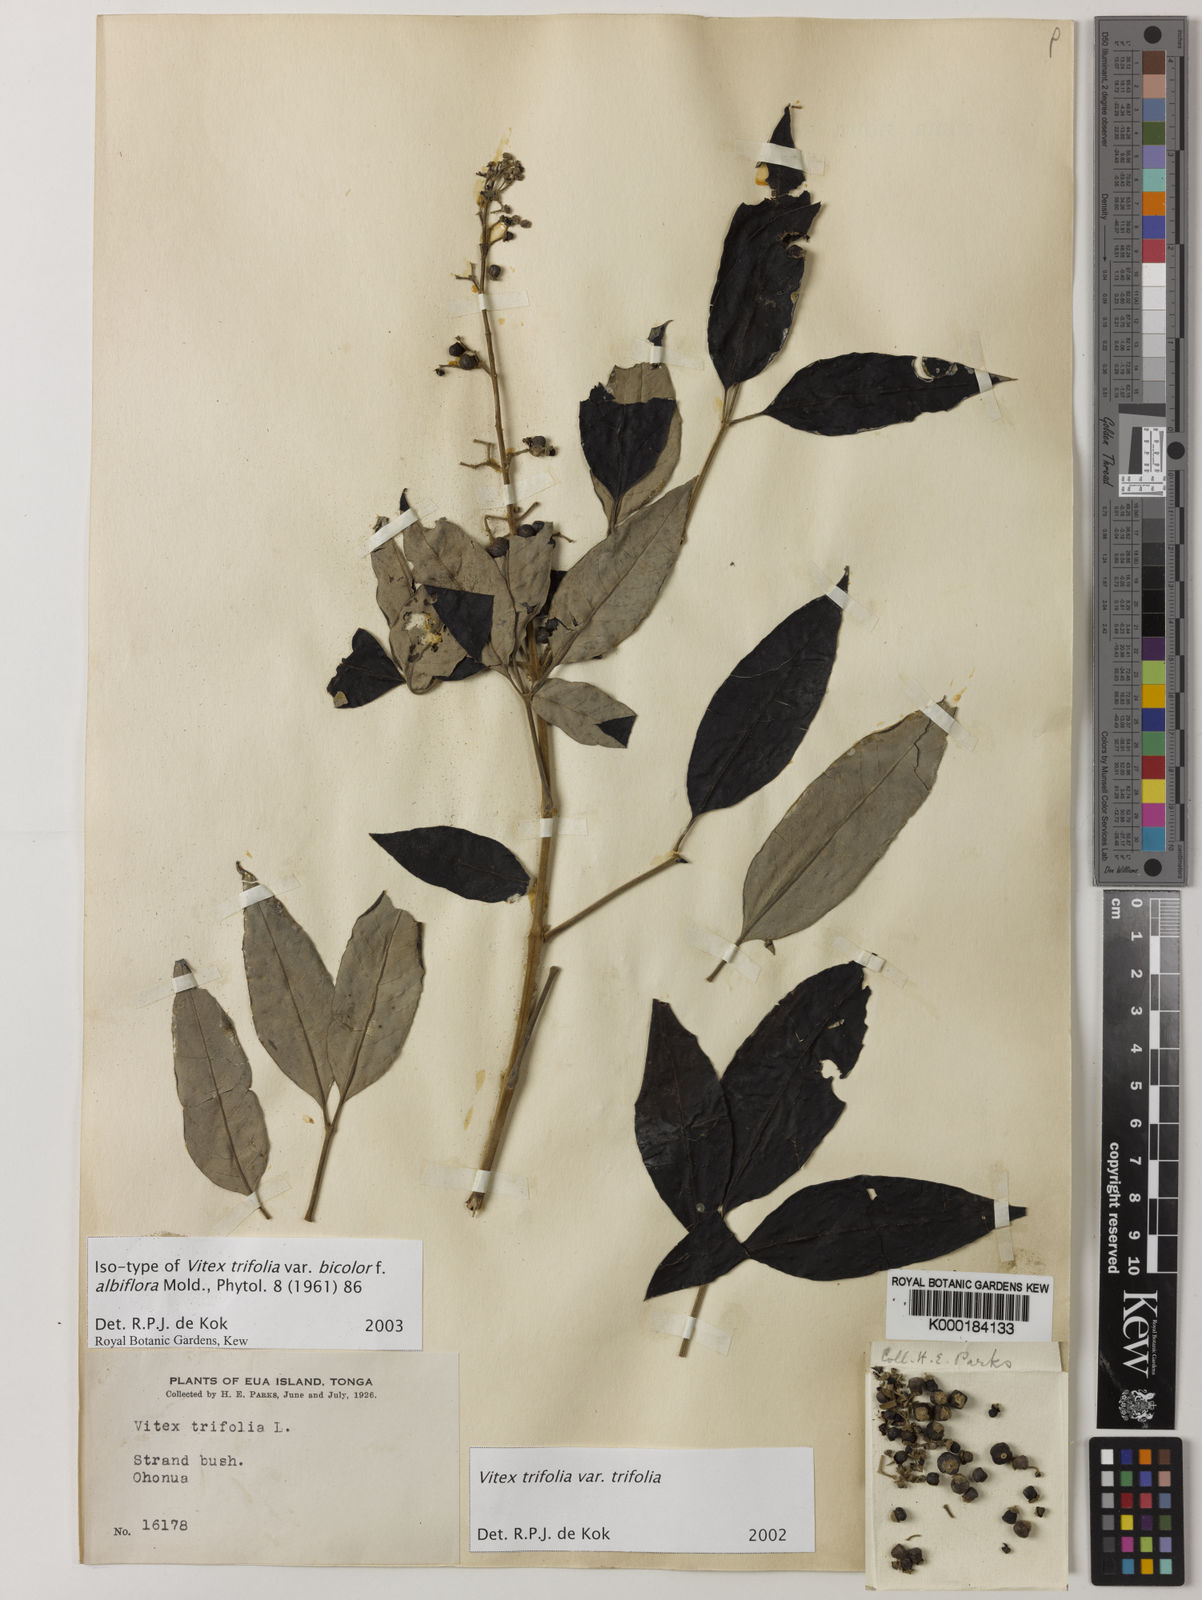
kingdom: Plantae
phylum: Tracheophyta
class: Magnoliopsida
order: Lamiales
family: Lamiaceae
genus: Vitex
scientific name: Vitex bicolor
